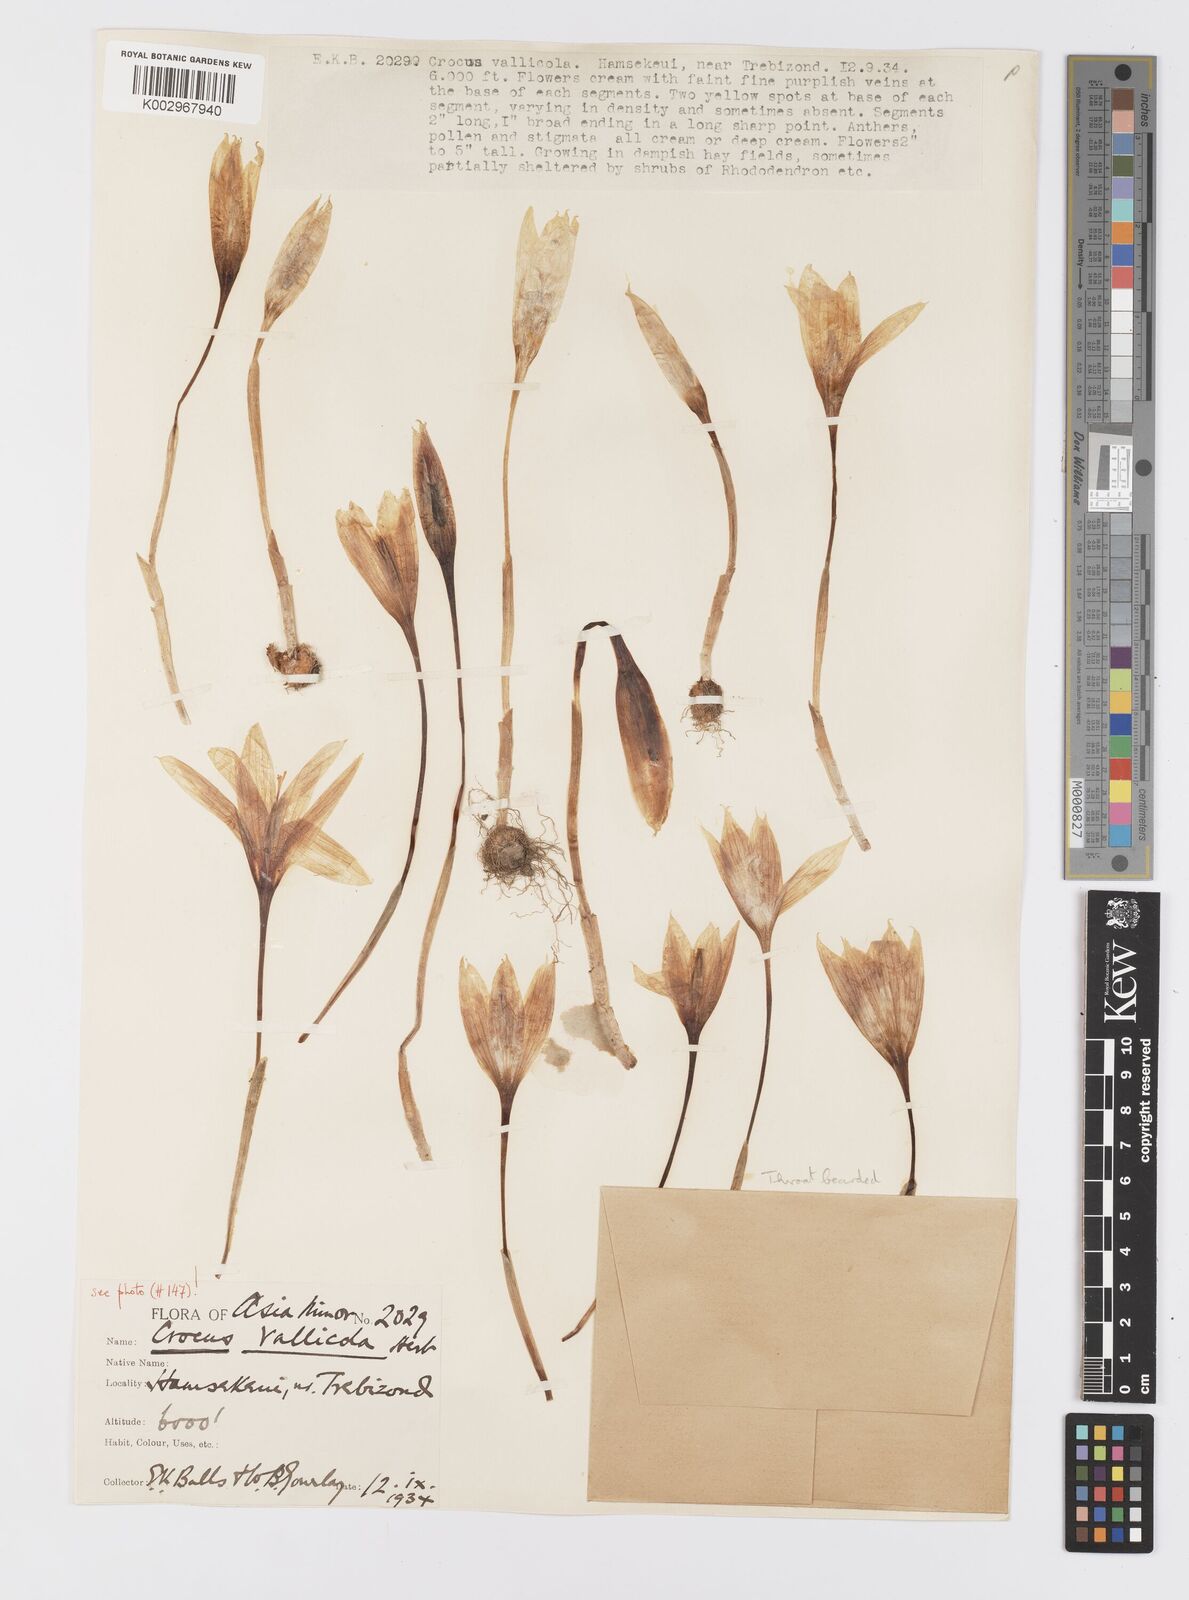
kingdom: Plantae
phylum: Tracheophyta
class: Liliopsida
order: Asparagales
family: Iridaceae
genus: Crocus
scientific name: Crocus vallicola
